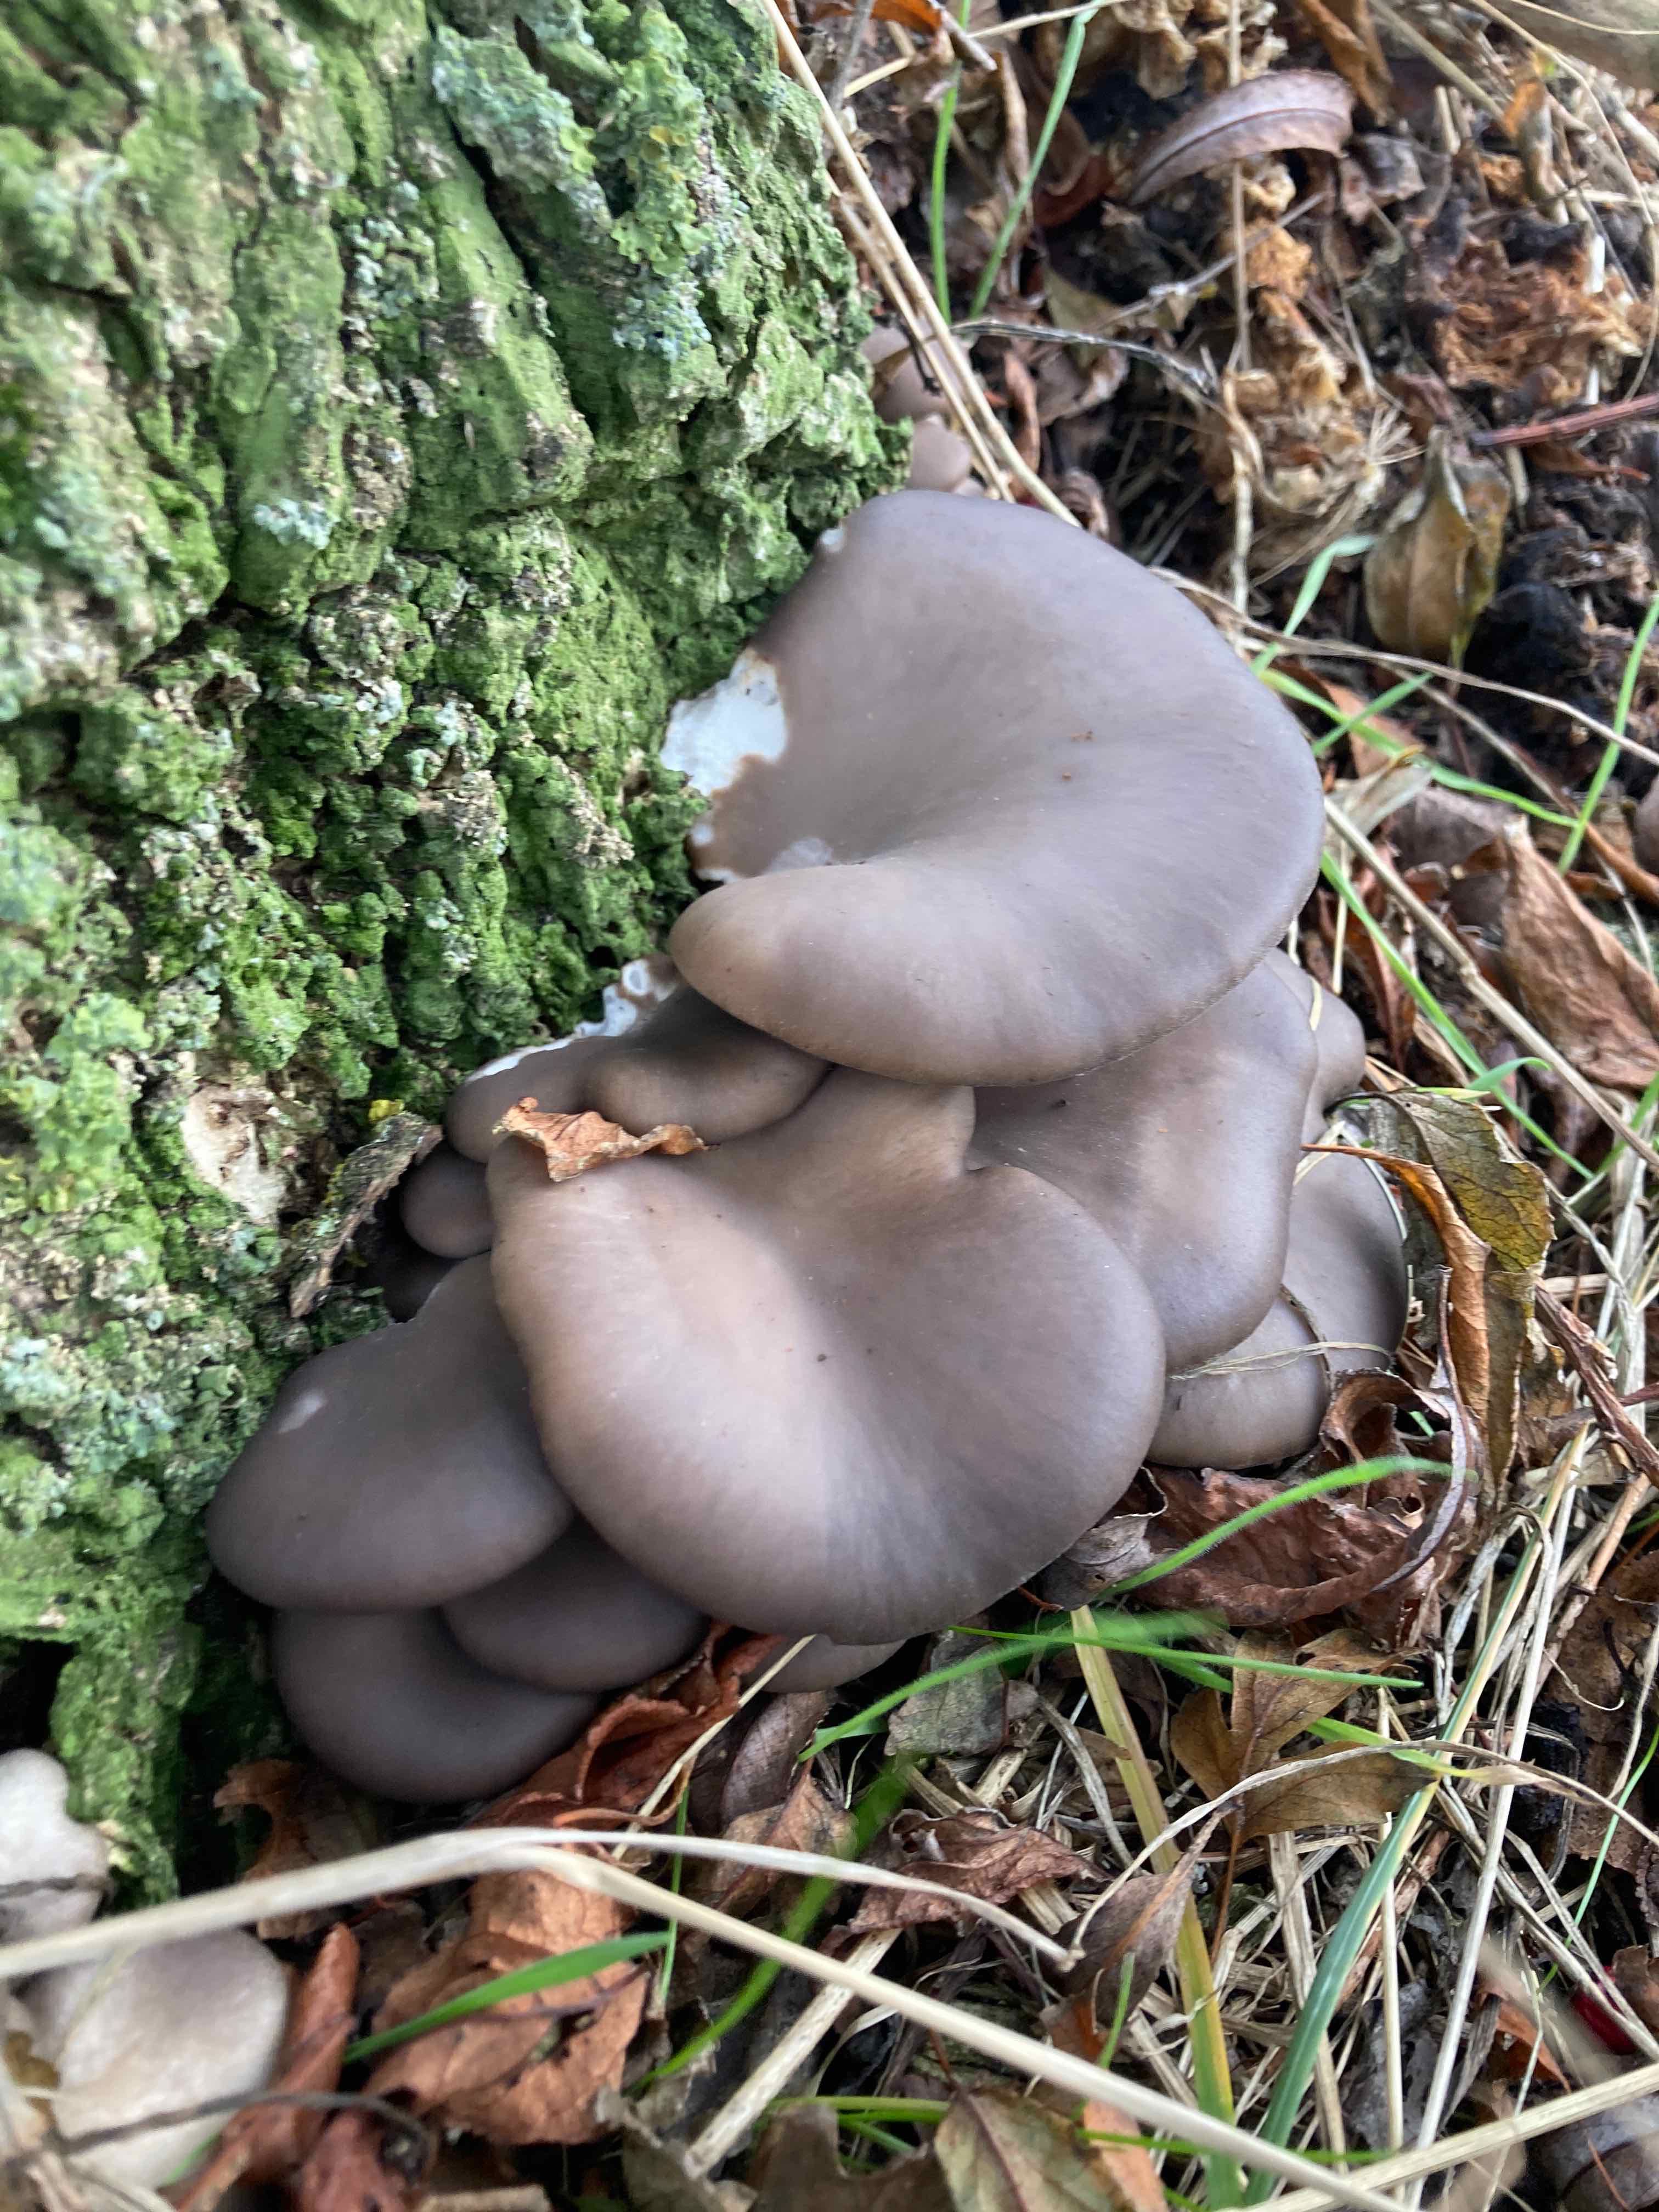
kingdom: Fungi
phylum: Basidiomycota
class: Agaricomycetes
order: Agaricales
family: Pleurotaceae
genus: Pleurotus
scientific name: Pleurotus ostreatus
